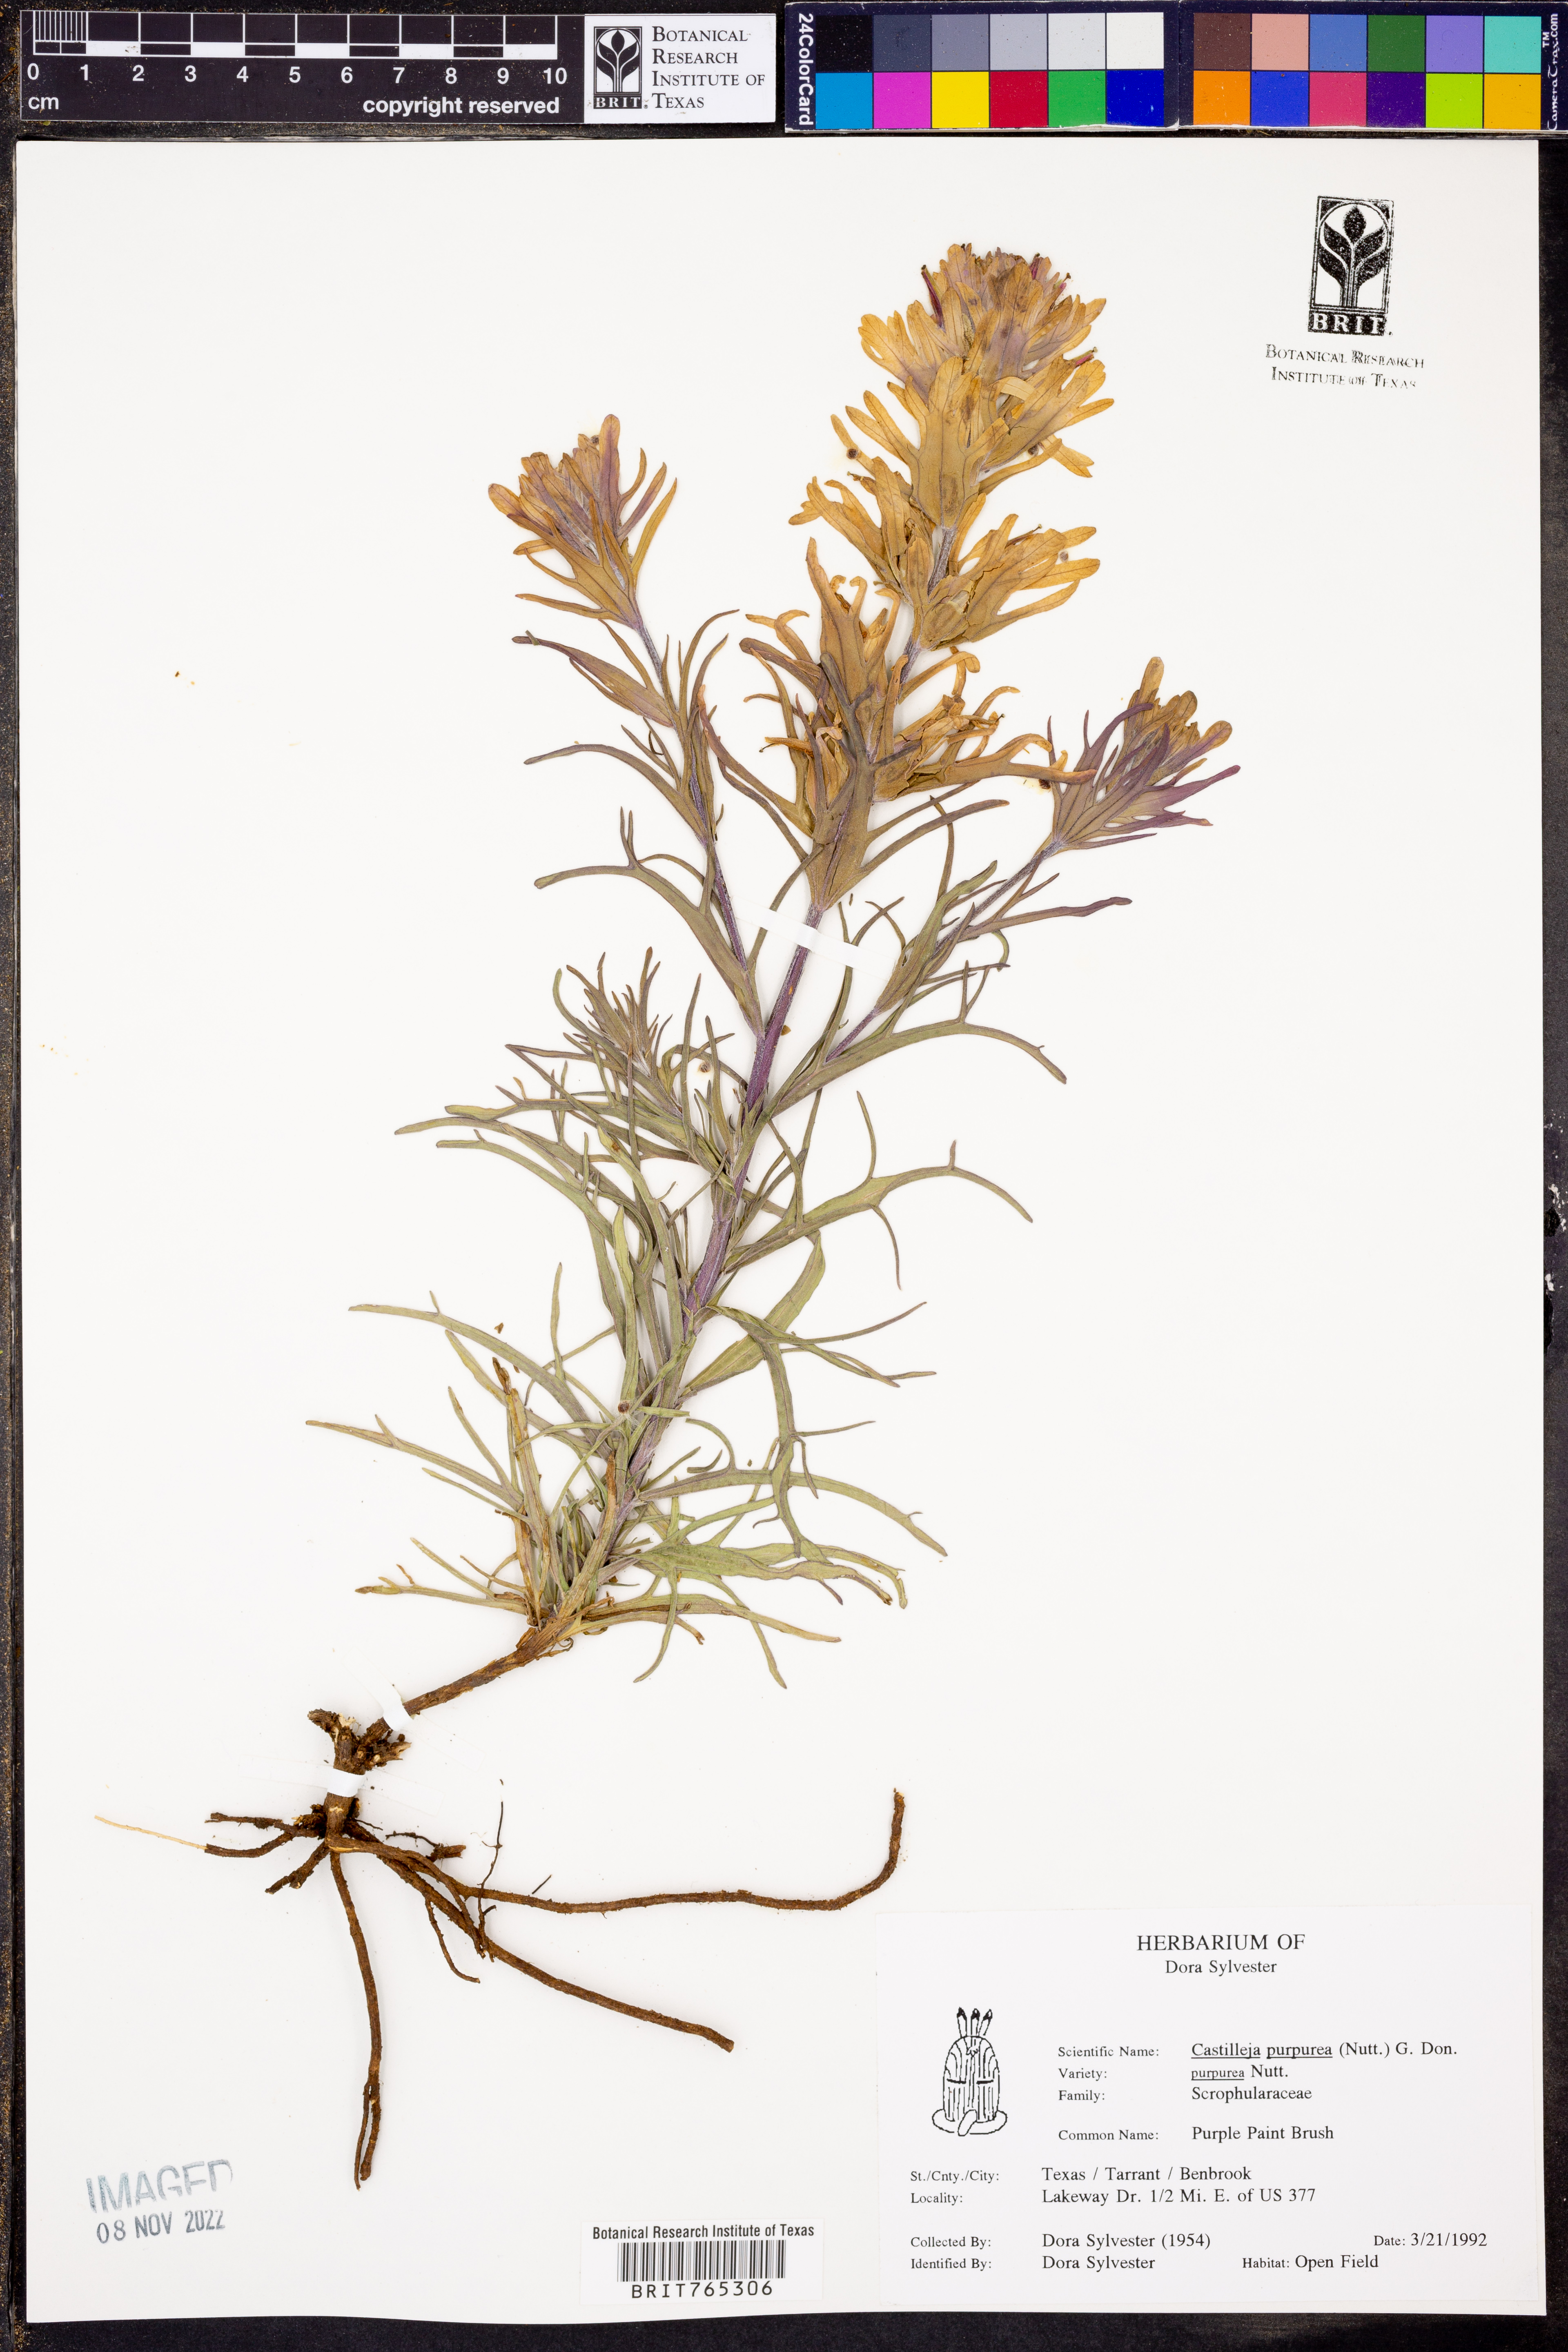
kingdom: Plantae
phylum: Tracheophyta
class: Magnoliopsida
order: Lamiales
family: Orobanchaceae
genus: Castilleja
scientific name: Castilleja purpurea
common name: Plains paintbrush
